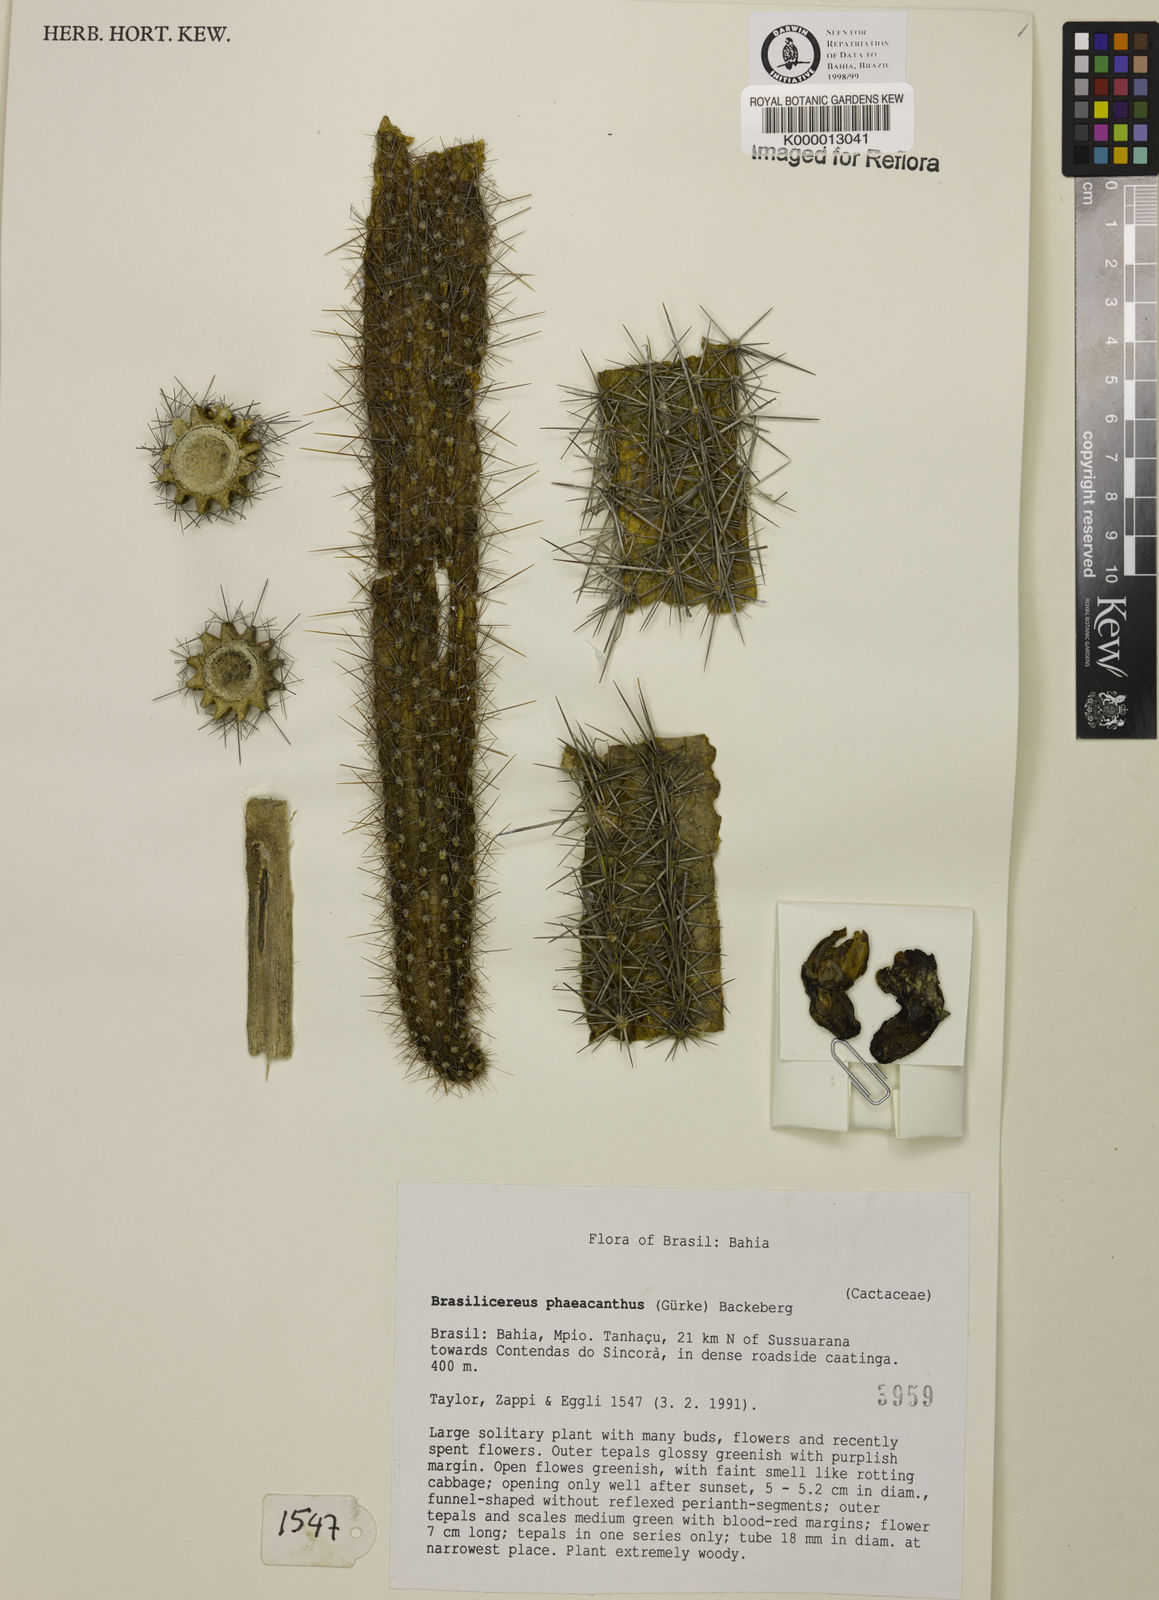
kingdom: Plantae
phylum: Tracheophyta
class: Magnoliopsida
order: Caryophyllales
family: Cactaceae
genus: Brasilicereus
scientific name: Brasilicereus phaeacanthus
